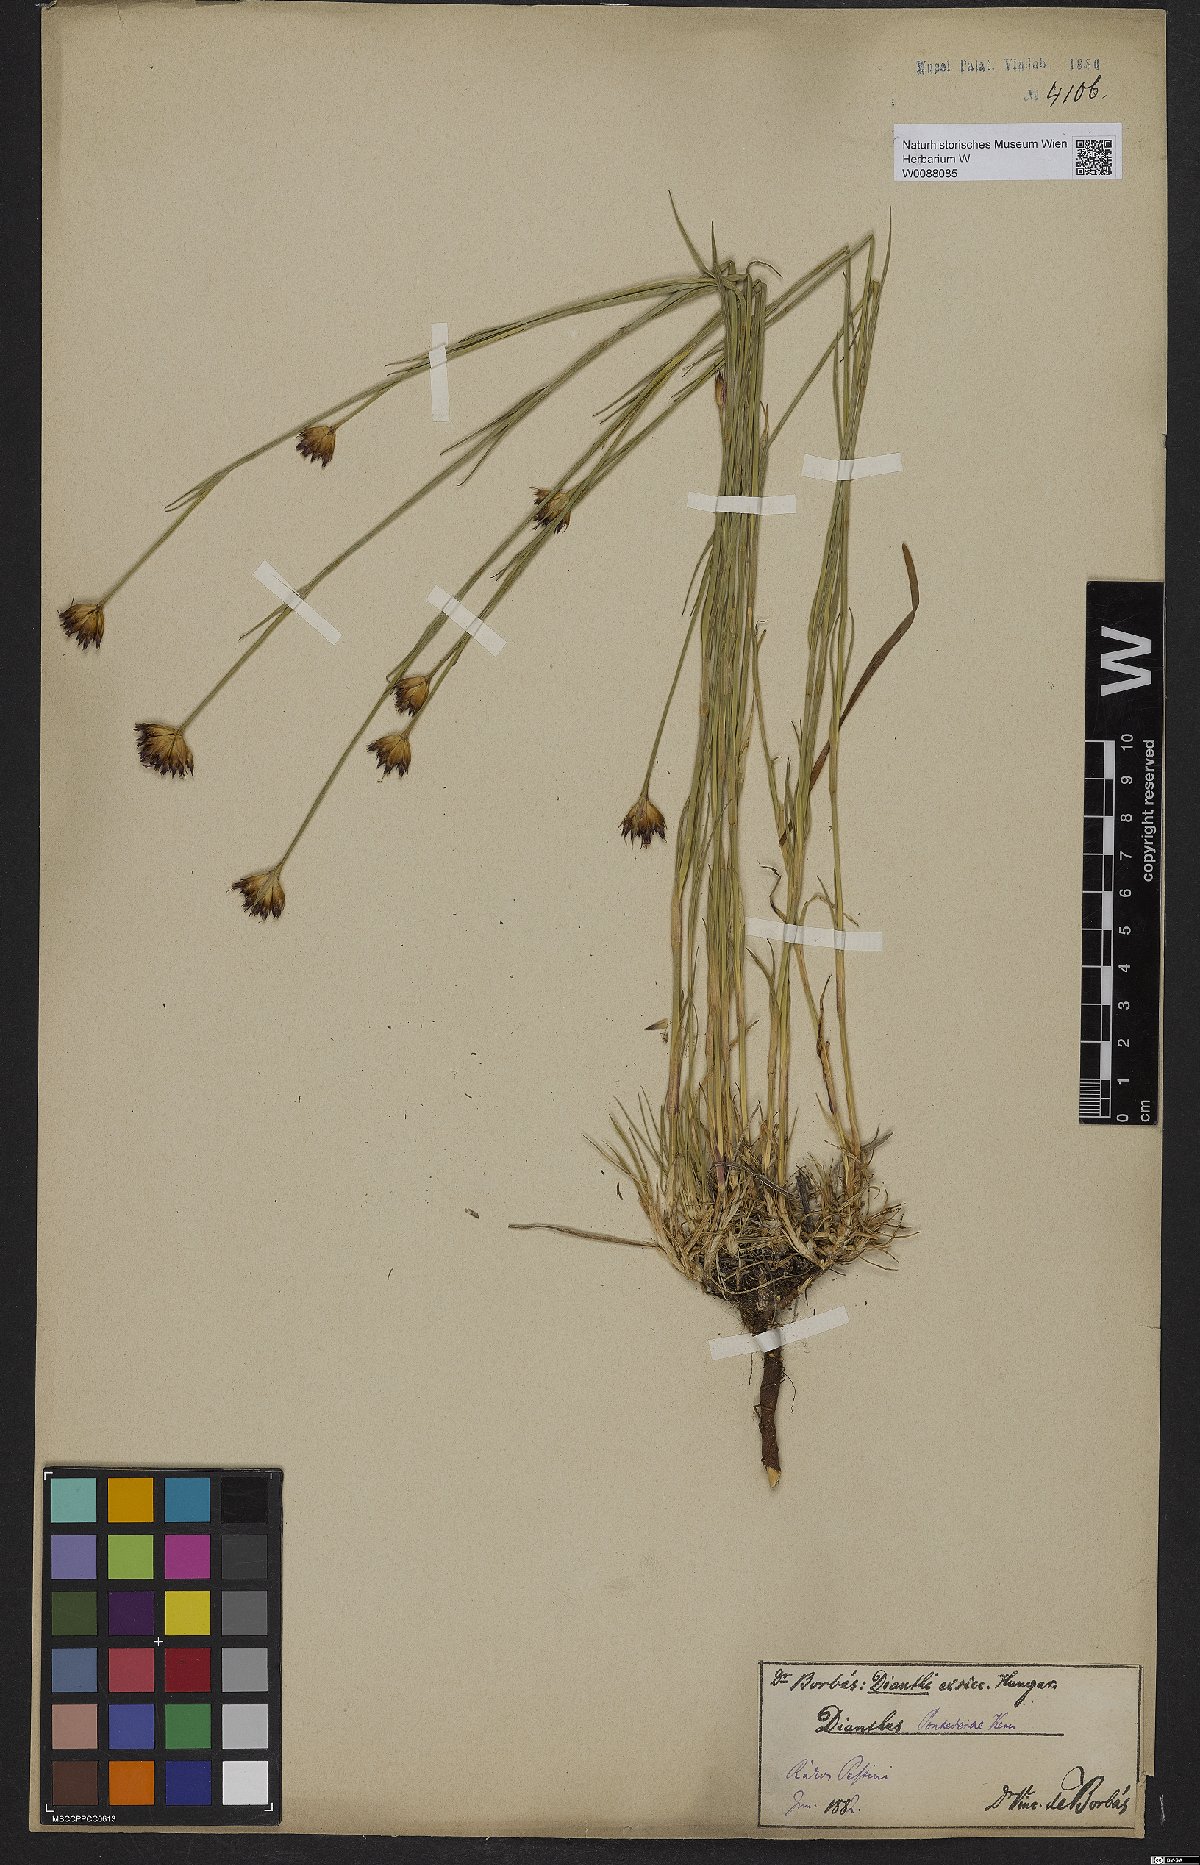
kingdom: Plantae
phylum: Tracheophyta
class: Magnoliopsida
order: Caryophyllales
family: Caryophyllaceae
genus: Dianthus
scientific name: Dianthus pontederae
